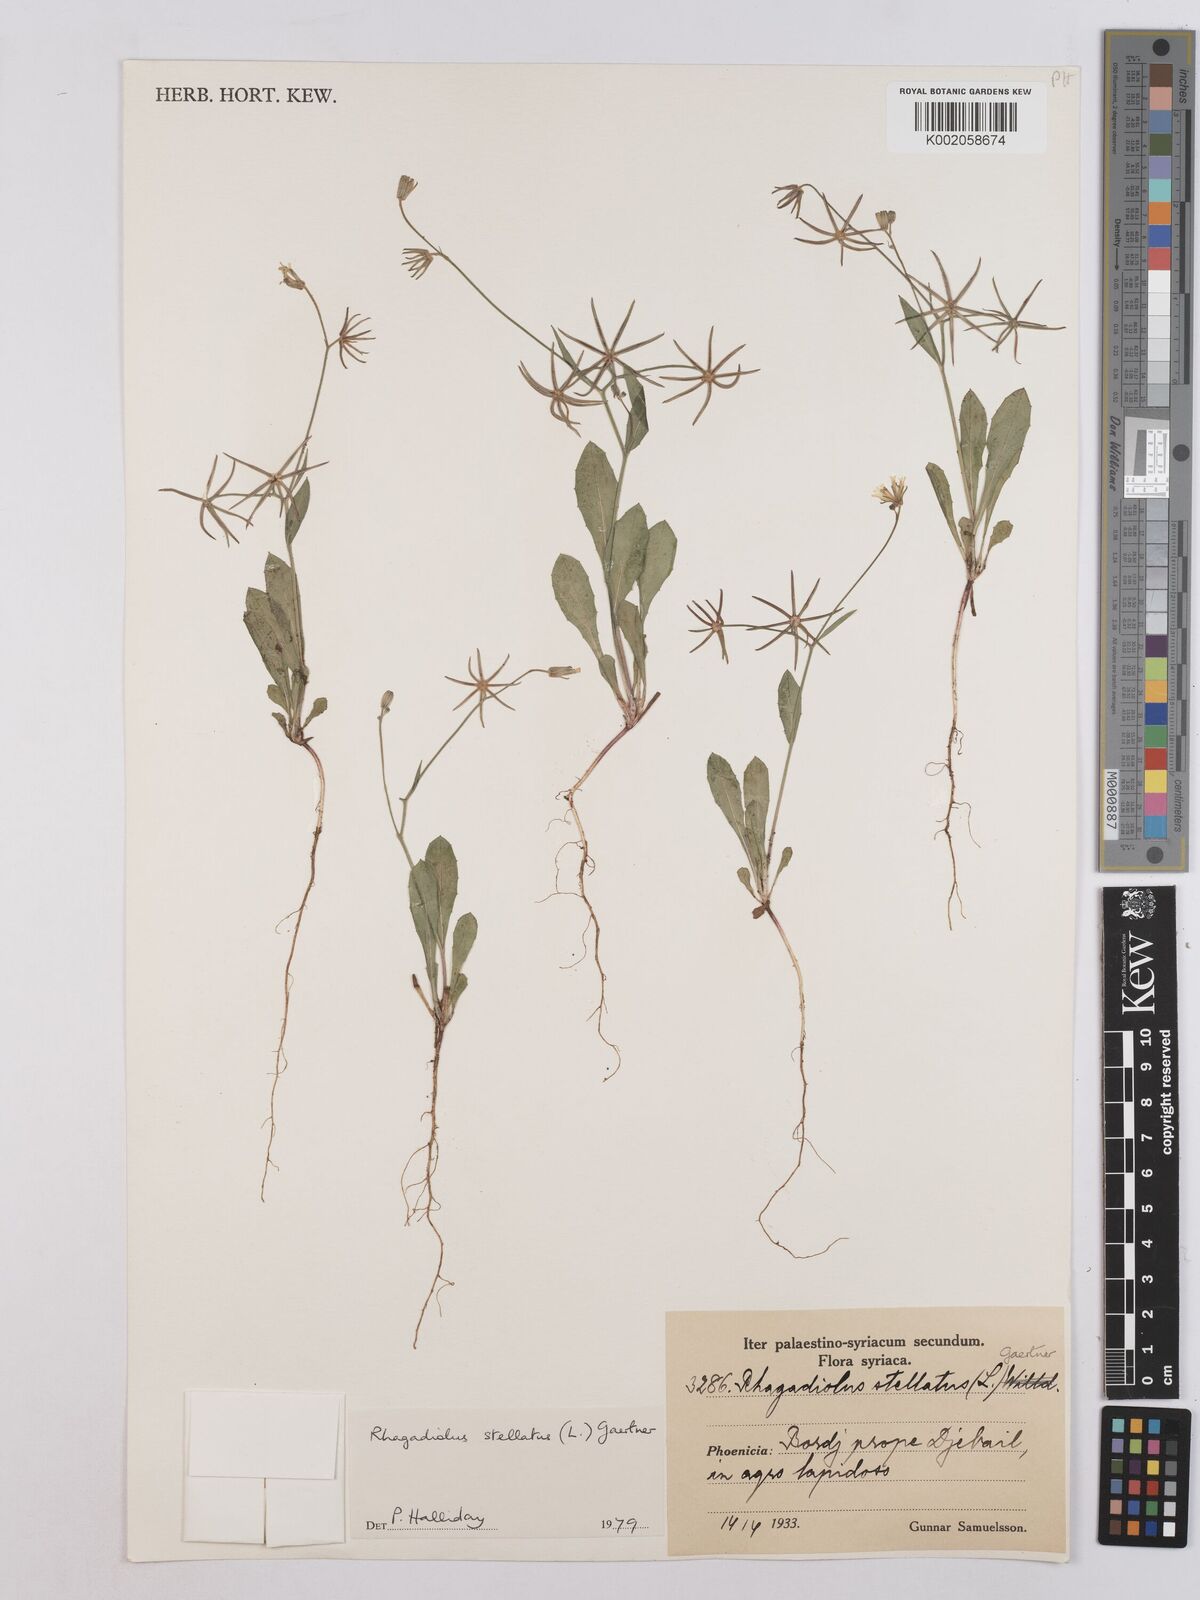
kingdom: Plantae
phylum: Tracheophyta
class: Magnoliopsida
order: Asterales
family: Asteraceae
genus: Rhagadiolus
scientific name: Rhagadiolus stellatus
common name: Star hawkbit
